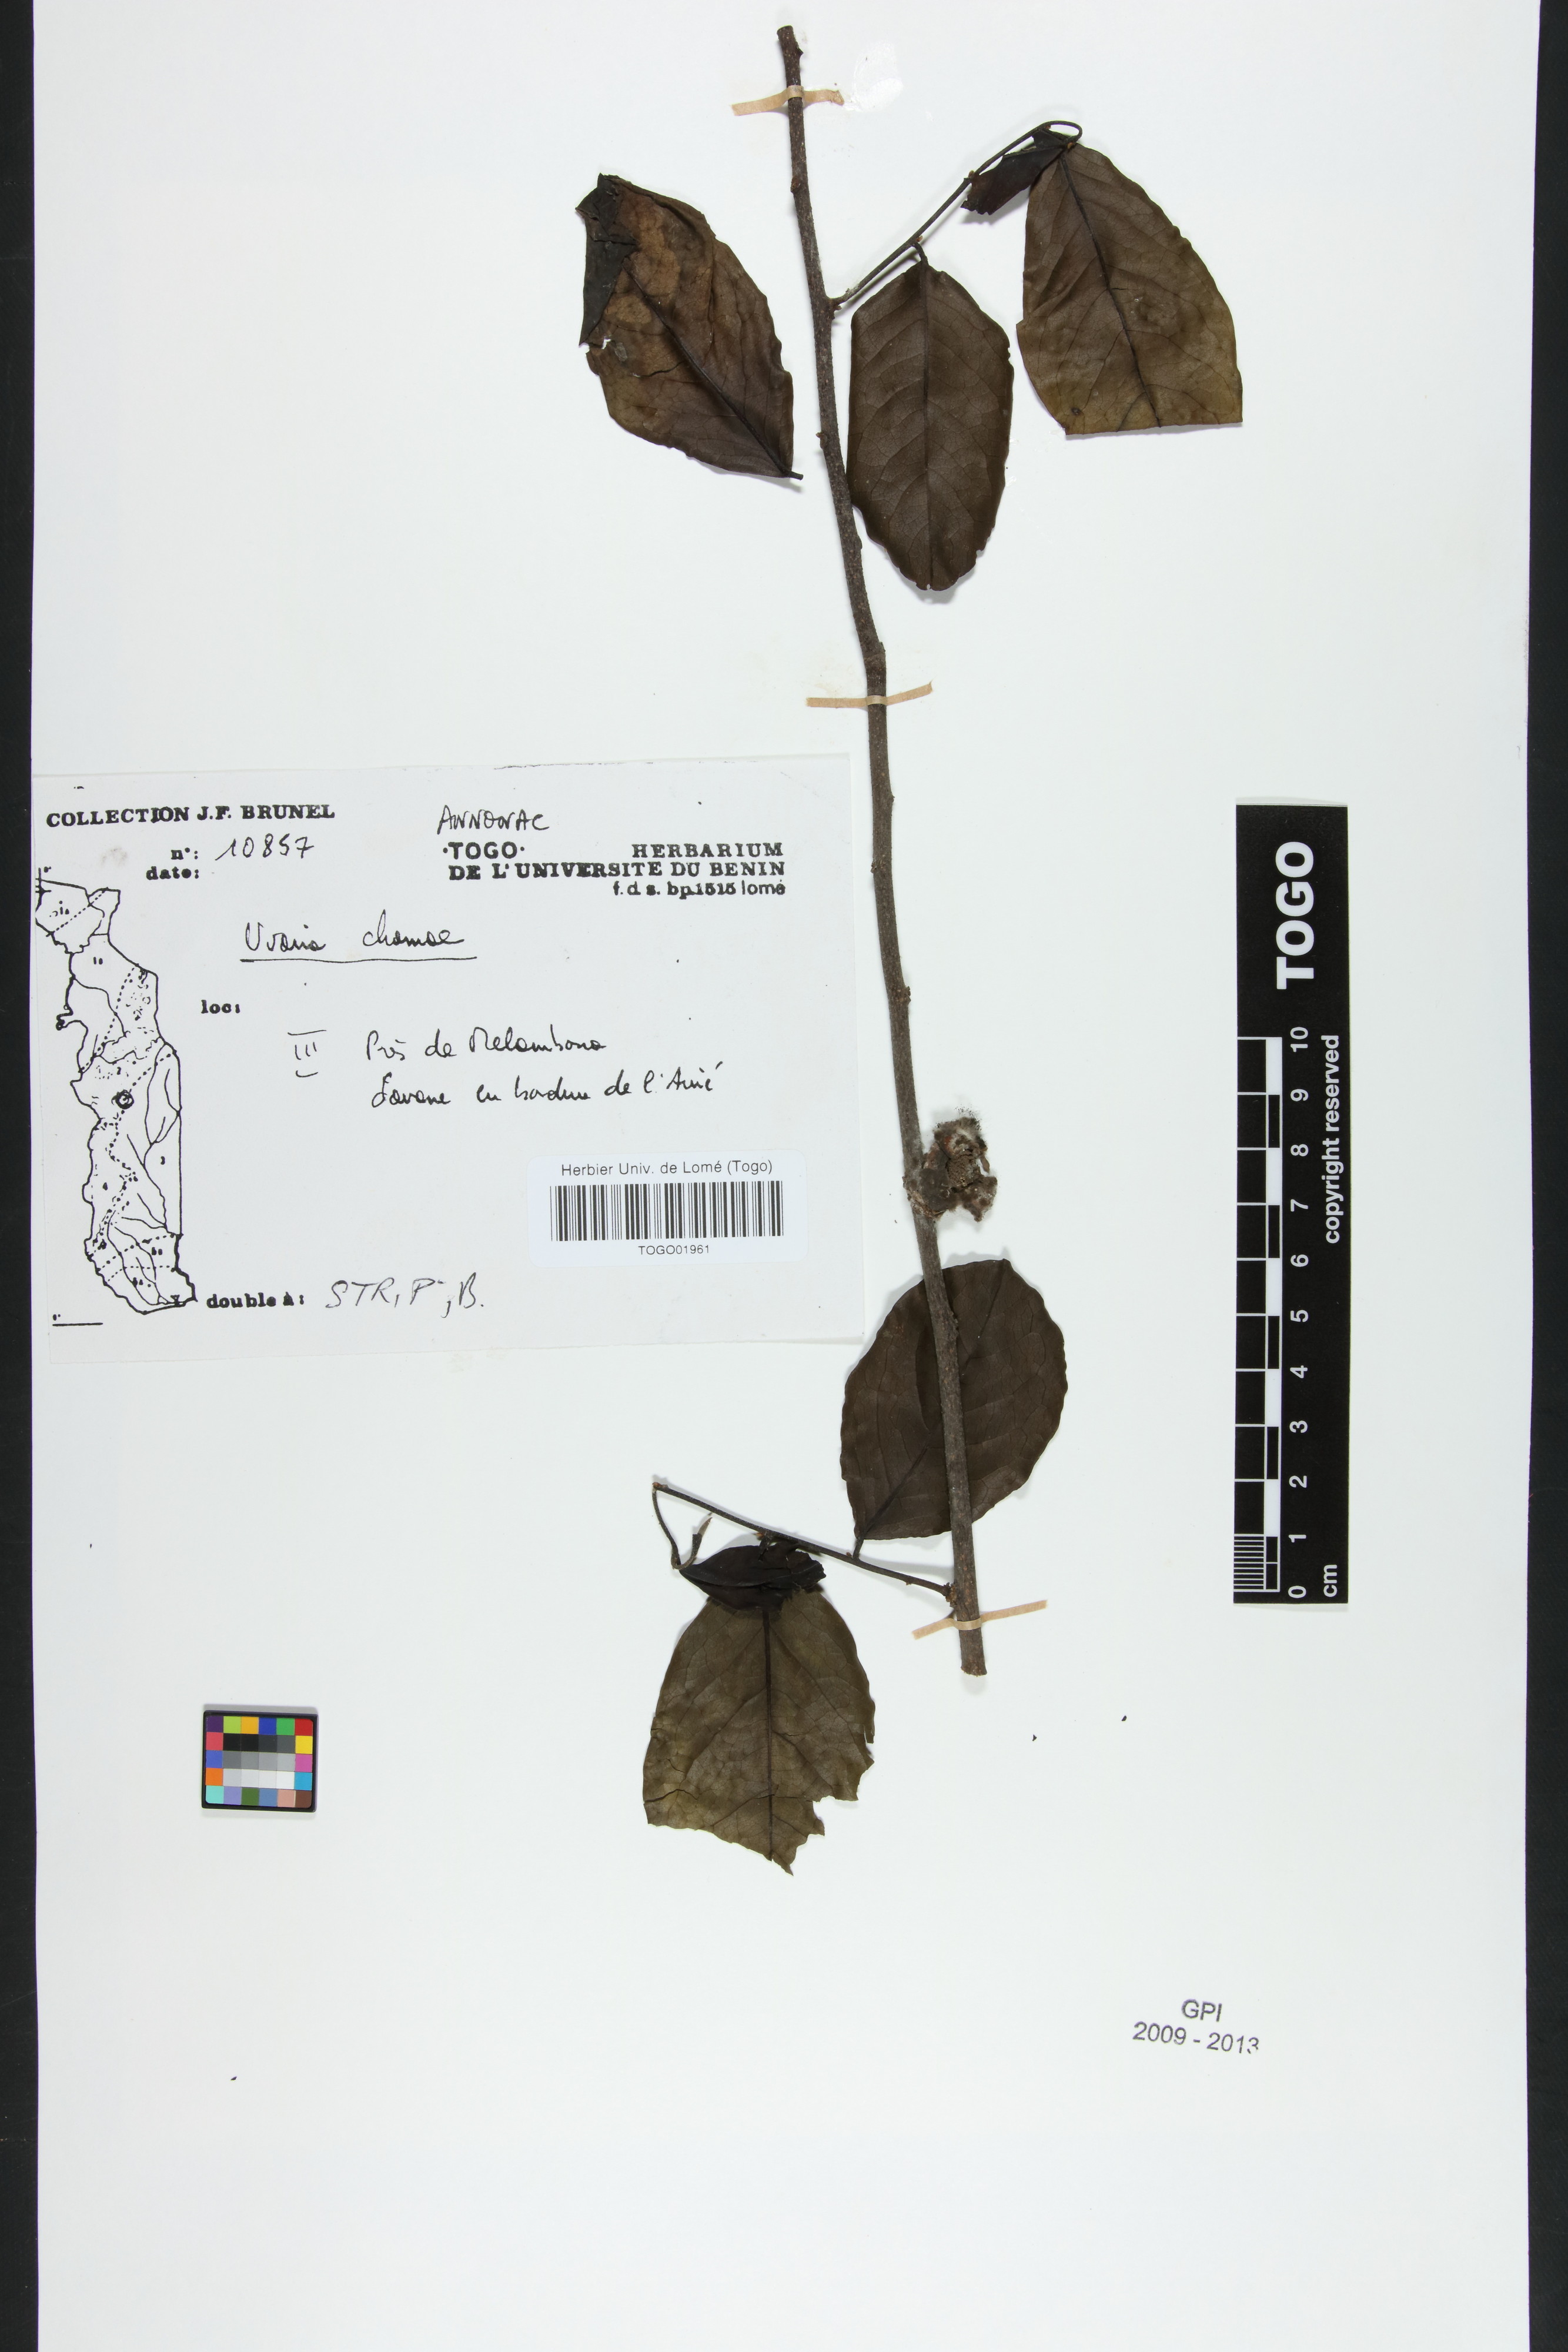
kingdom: Plantae
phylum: Tracheophyta
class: Magnoliopsida
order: Magnoliales
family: Annonaceae
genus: Uvaria
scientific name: Uvaria chamae
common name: Finger-root
